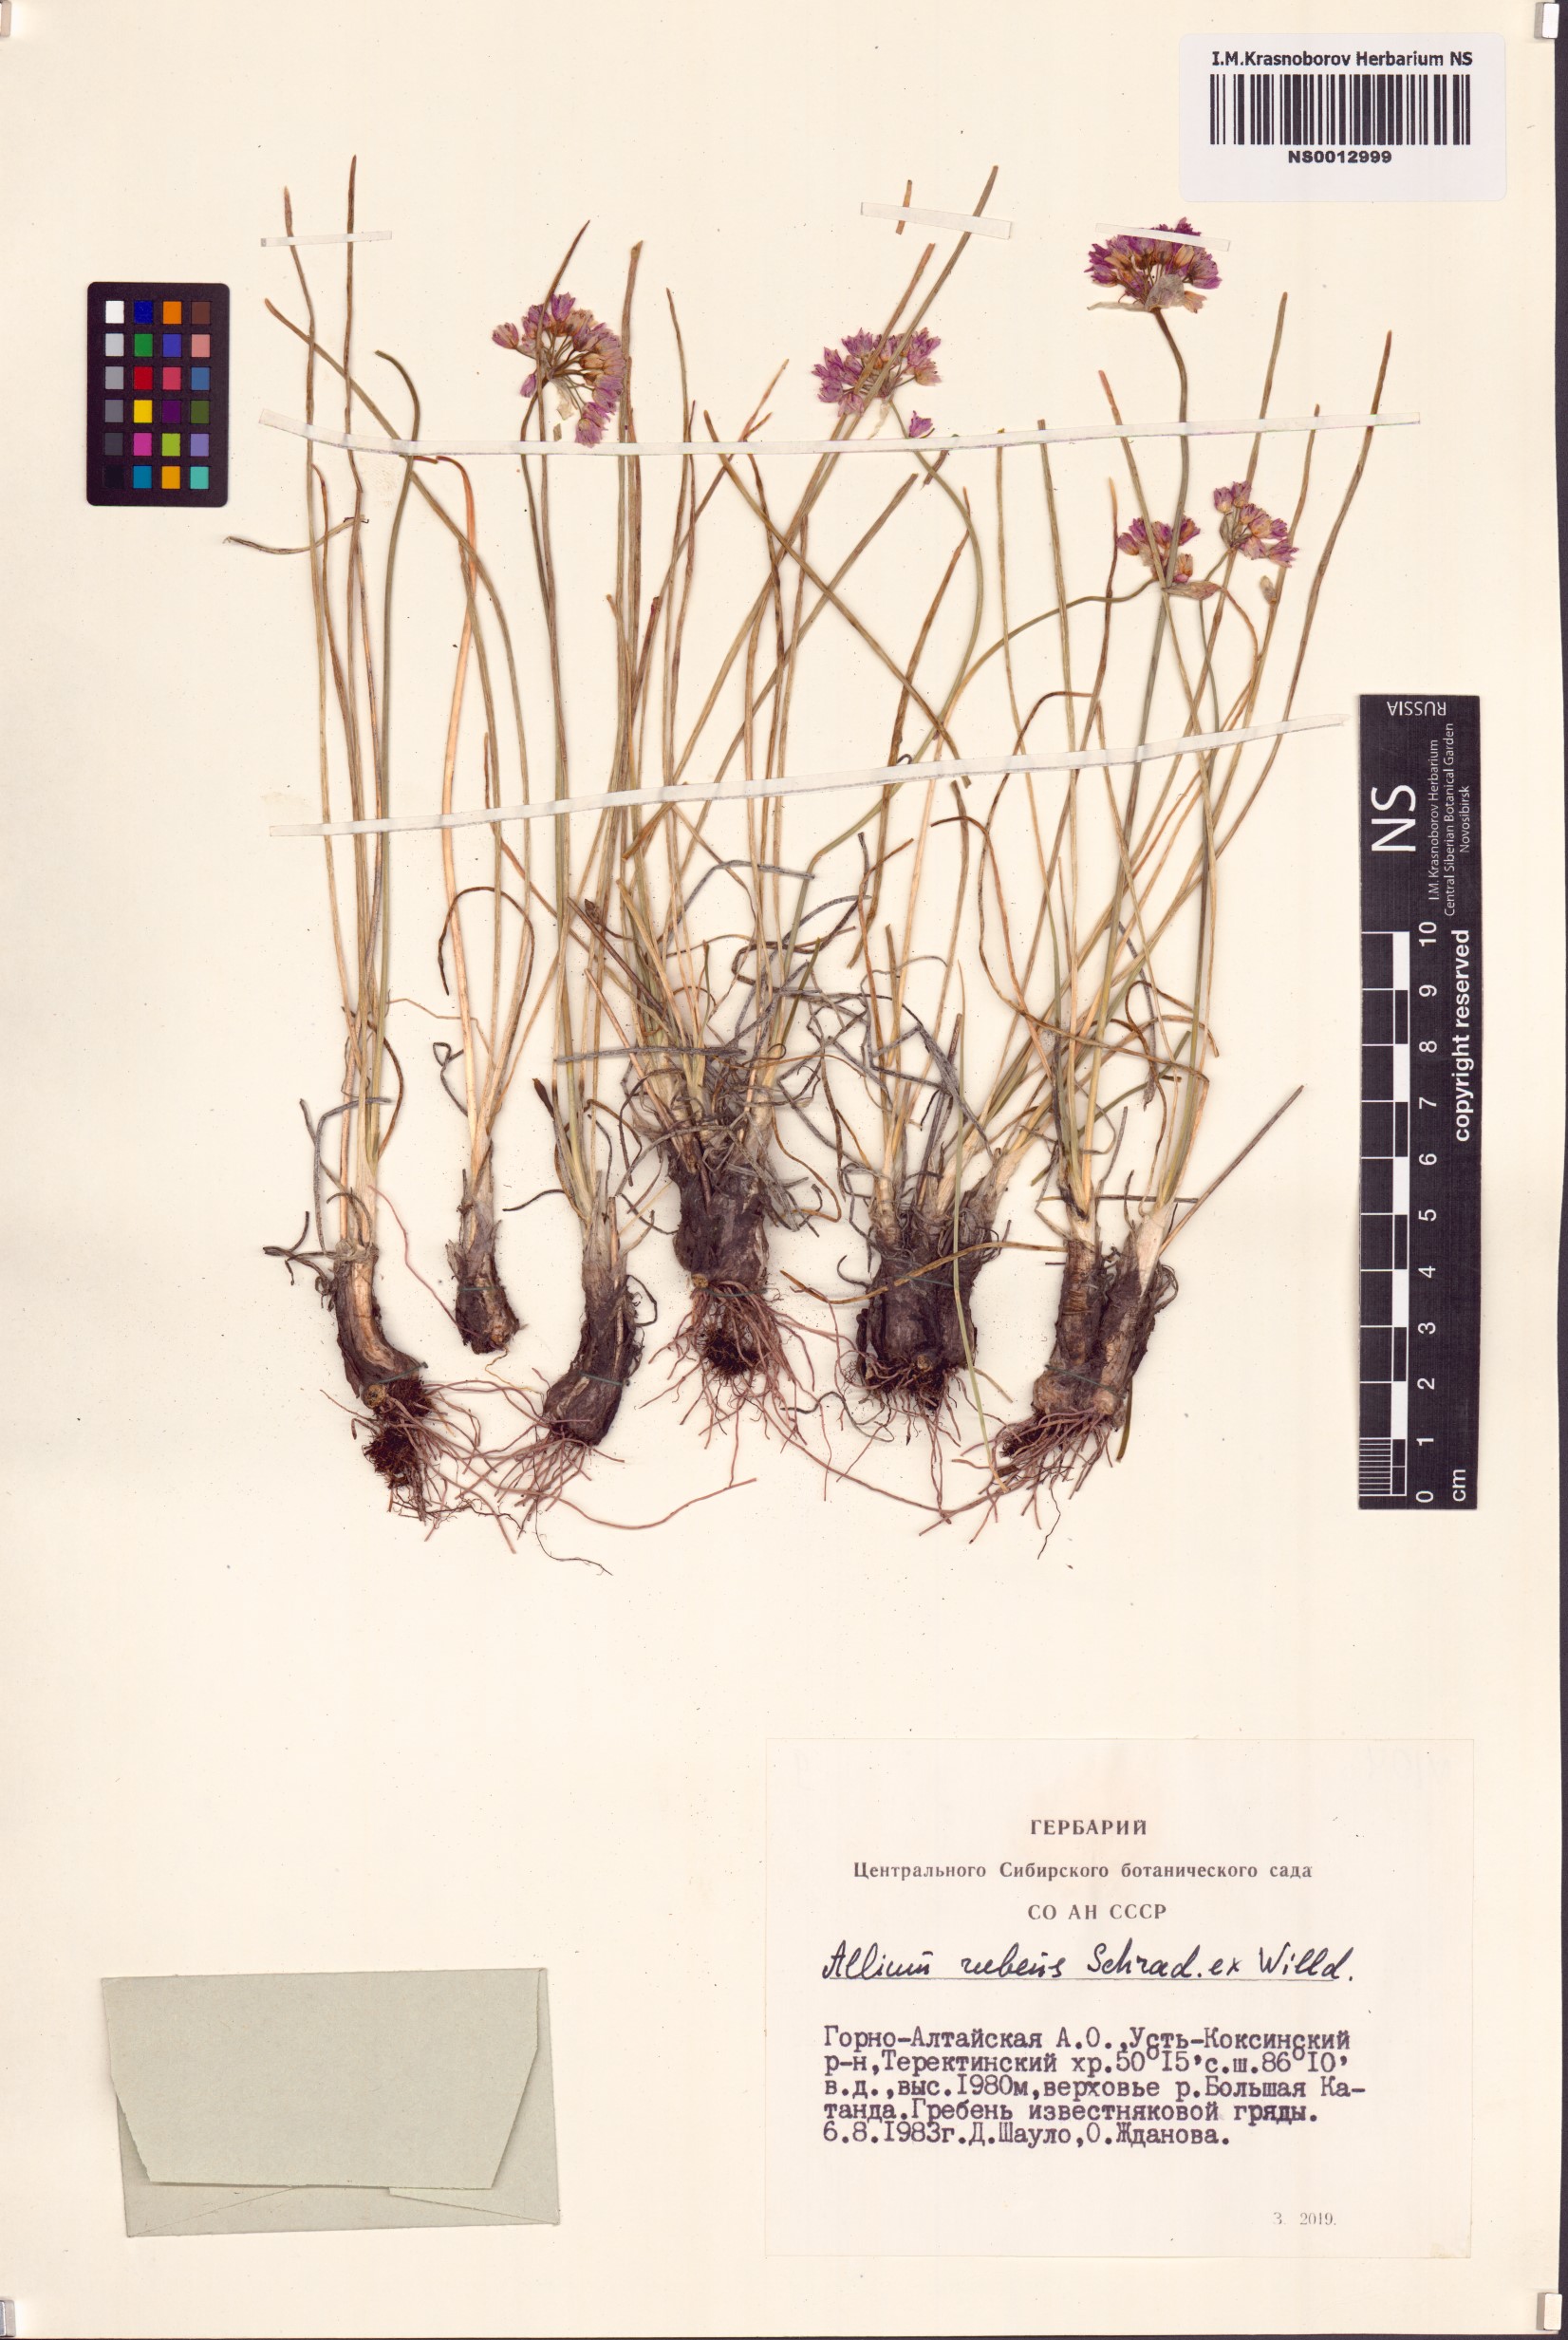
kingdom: Plantae
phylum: Tracheophyta
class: Liliopsida
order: Asparagales
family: Amaryllidaceae
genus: Allium
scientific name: Allium rubens
